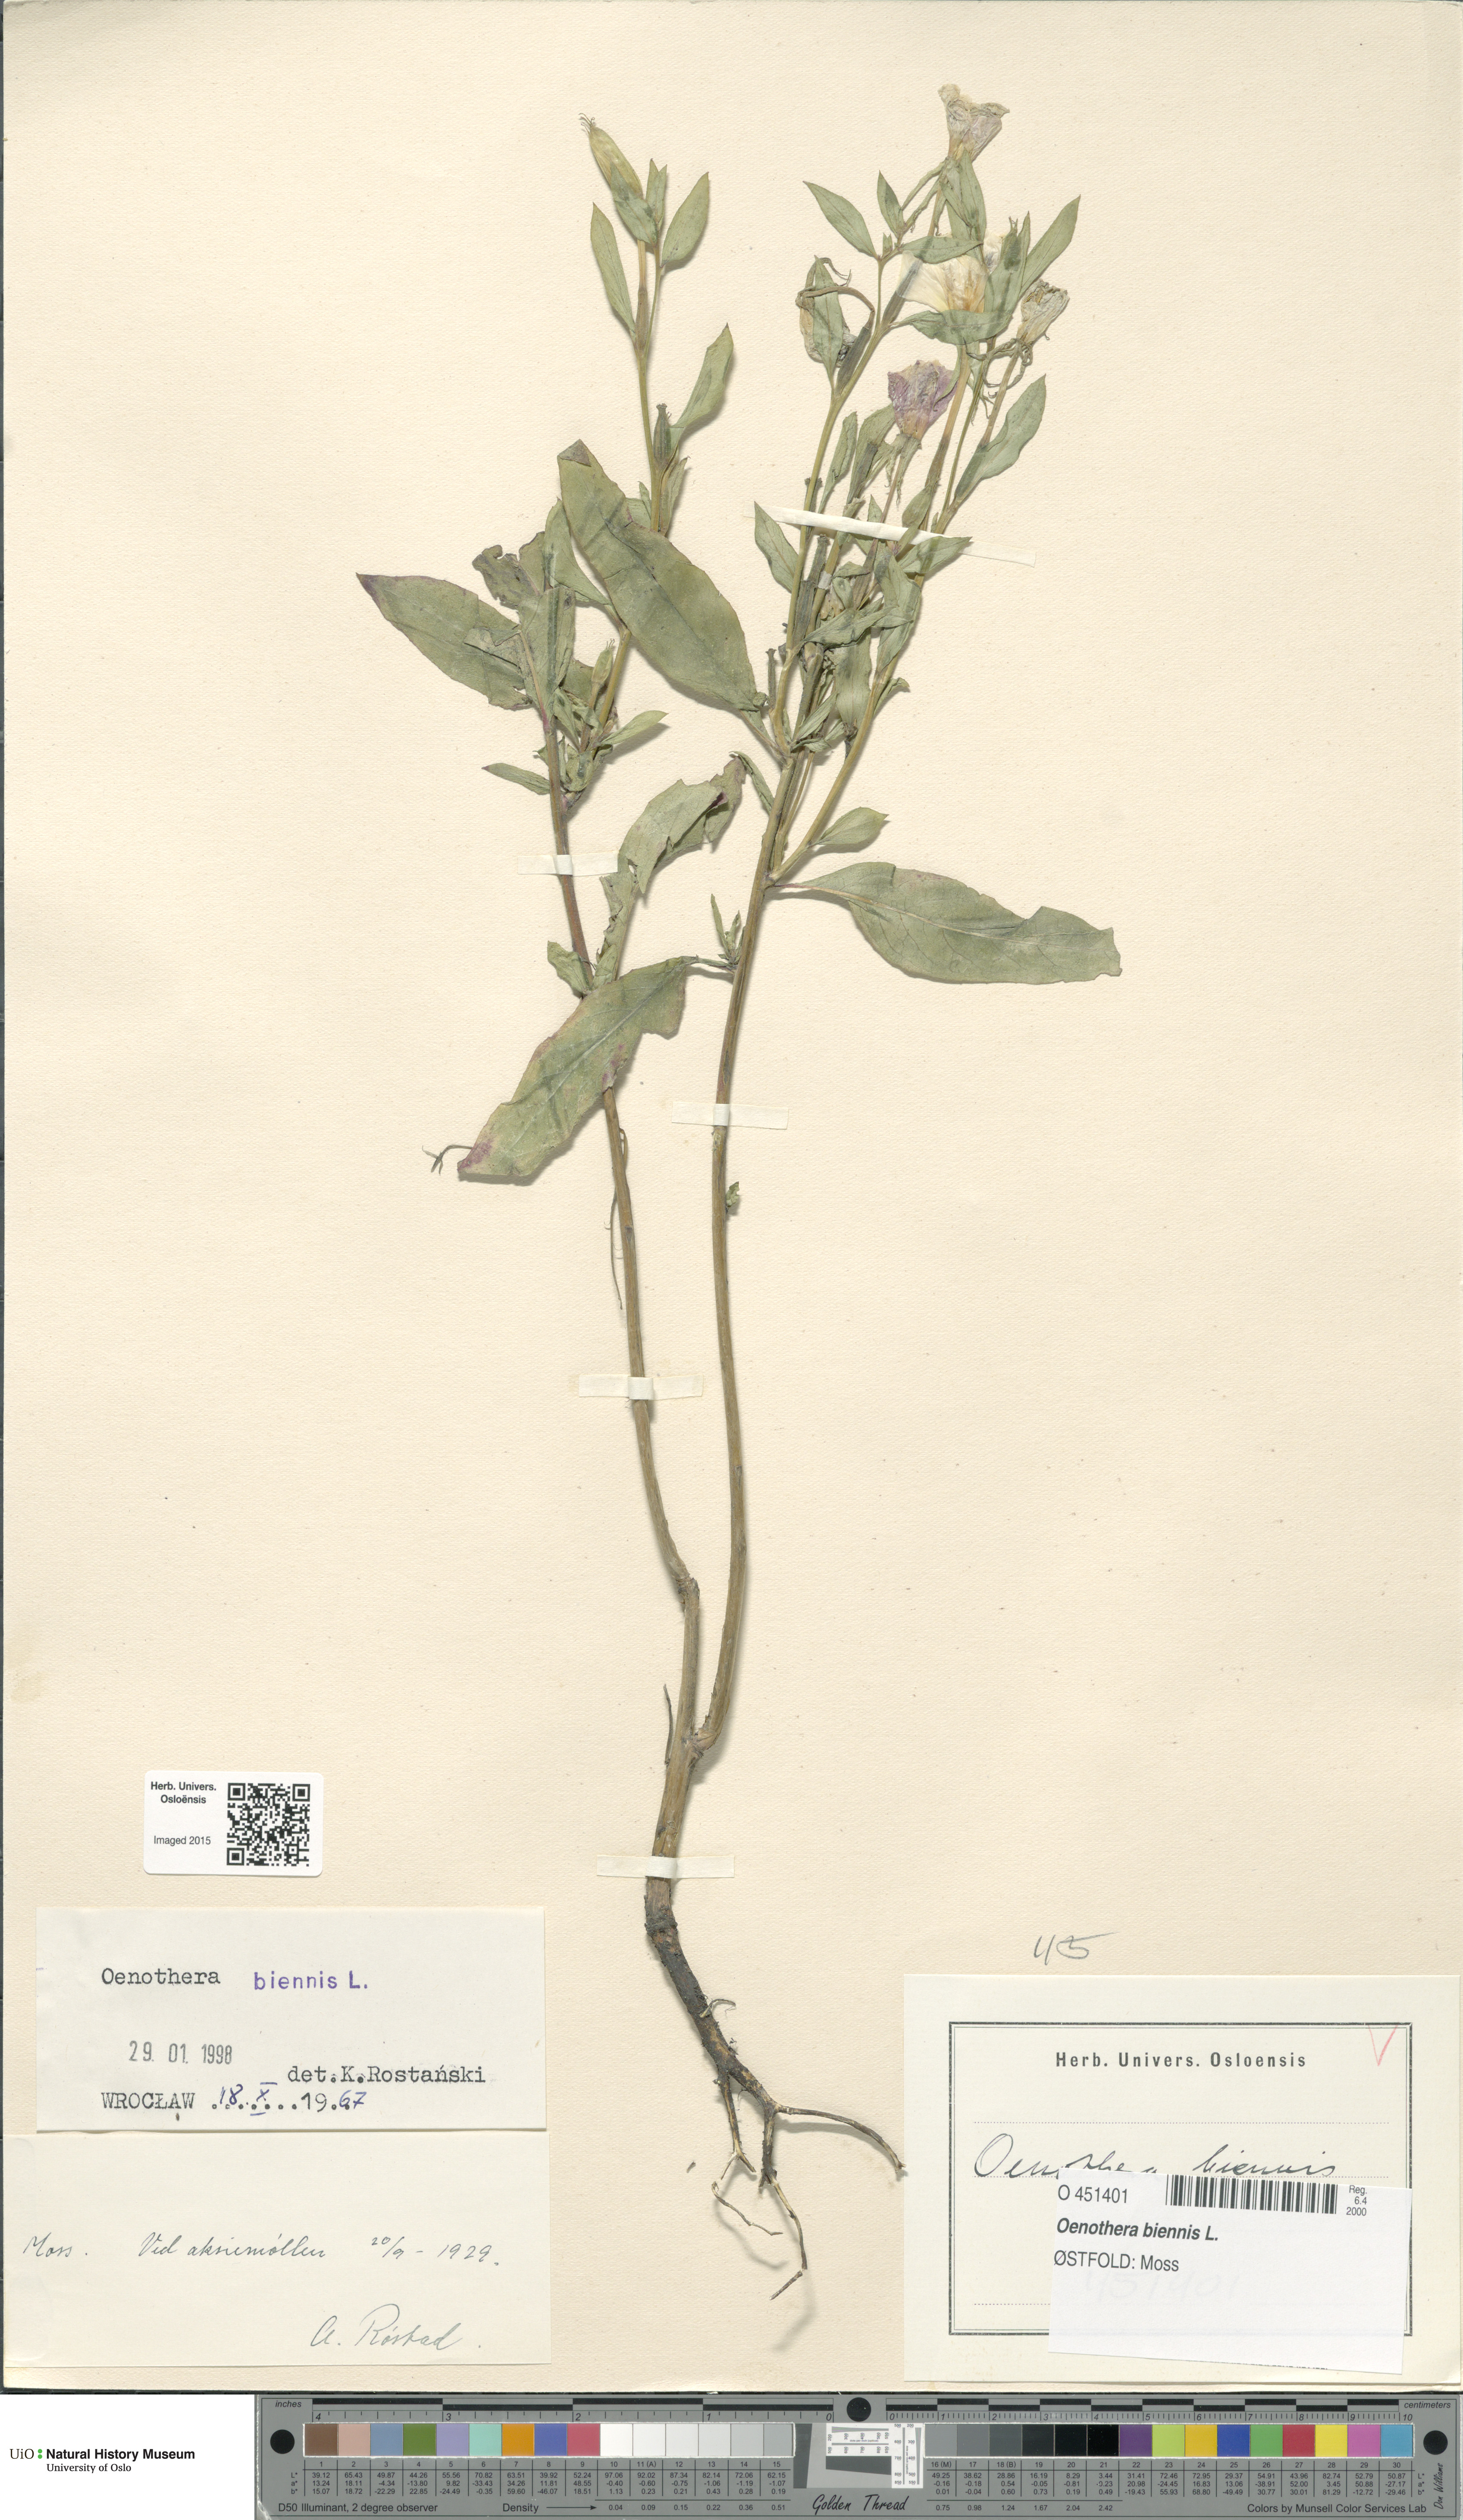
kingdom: Plantae
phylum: Tracheophyta
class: Magnoliopsida
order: Myrtales
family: Onagraceae
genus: Oenothera
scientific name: Oenothera biennis
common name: Common evening-primrose
